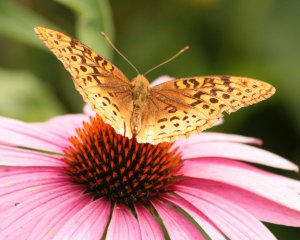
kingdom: Animalia
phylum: Arthropoda
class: Insecta
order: Lepidoptera
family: Nymphalidae
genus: Speyeria
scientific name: Speyeria cybele
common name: Great Spangled Fritillary
